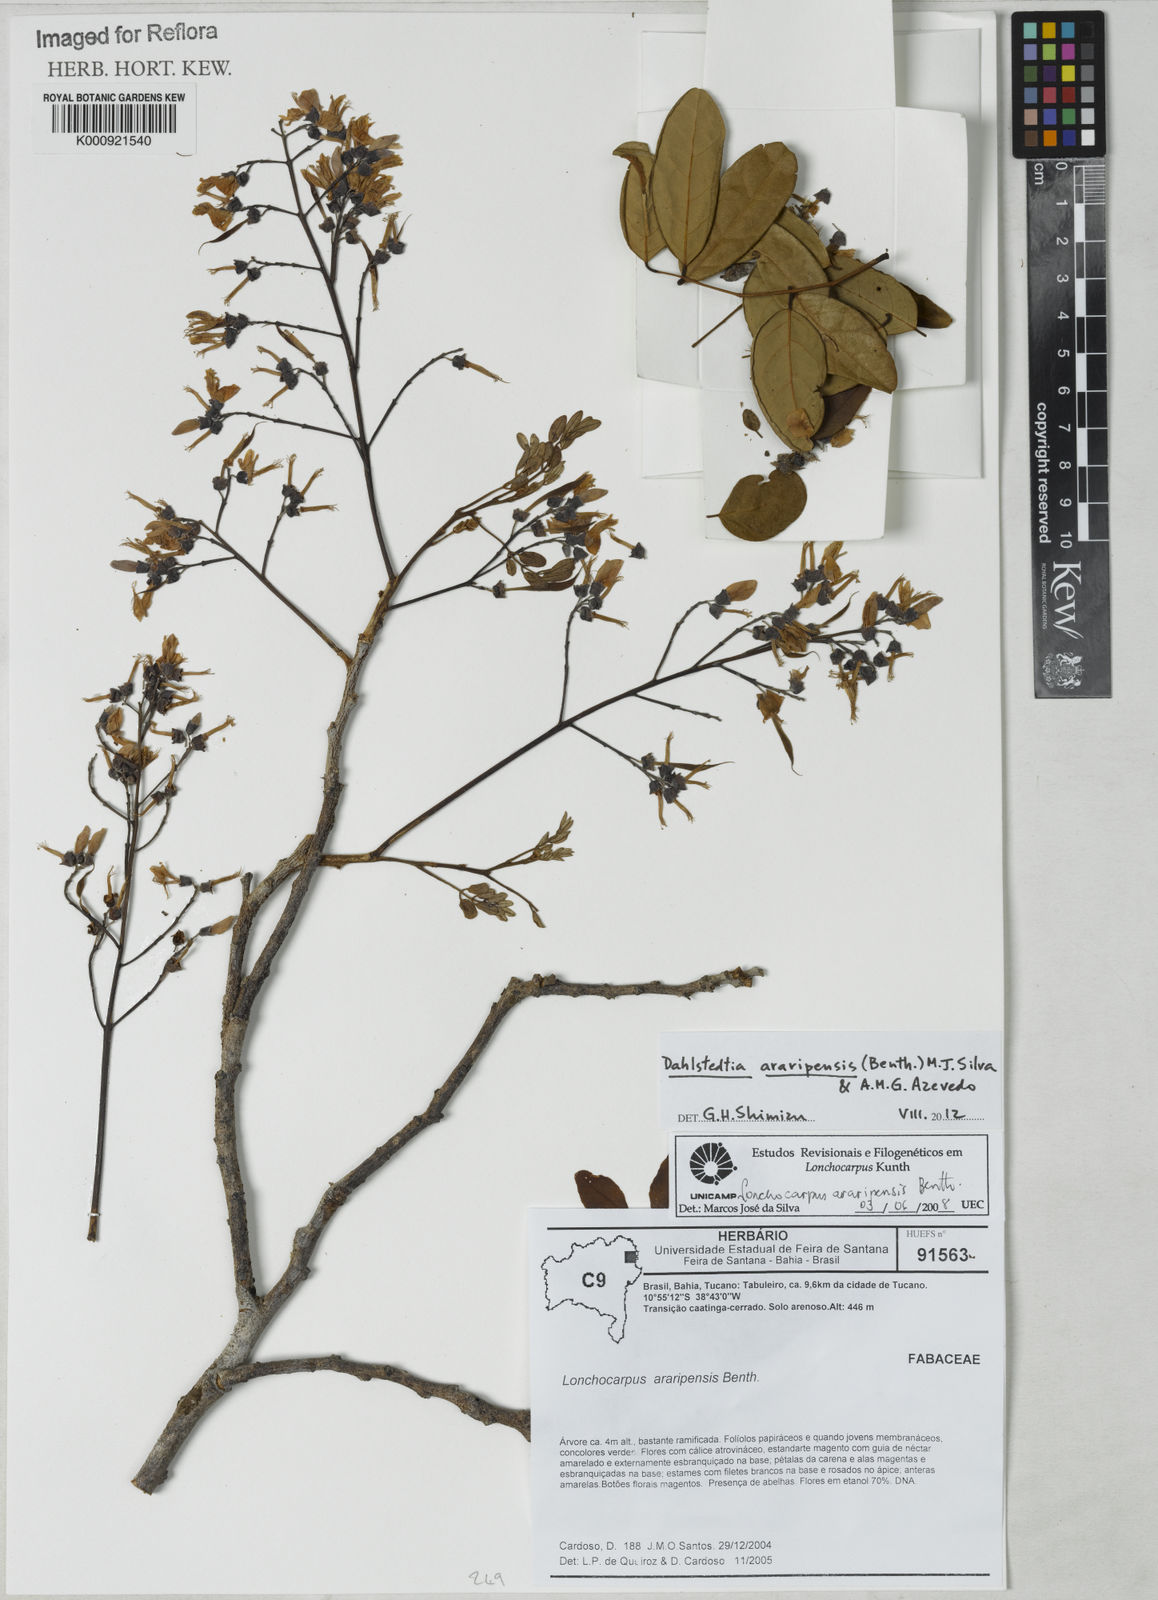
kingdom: Plantae
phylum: Tracheophyta
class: Magnoliopsida
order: Fabales
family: Fabaceae
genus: Dahlstedtia
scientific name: Dahlstedtia araripensis
